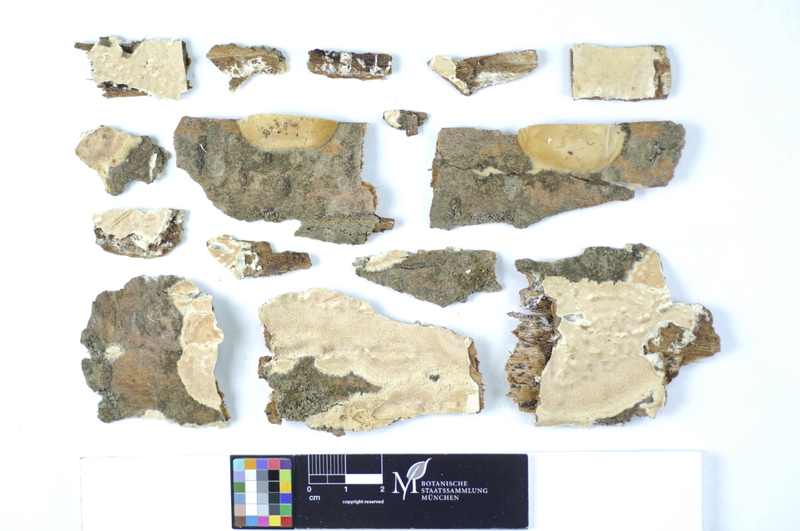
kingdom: Fungi
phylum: Basidiomycota
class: Agaricomycetes
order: Polyporales
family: Hyphodermataceae
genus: Mutatoderma
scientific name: Mutatoderma mutatum
